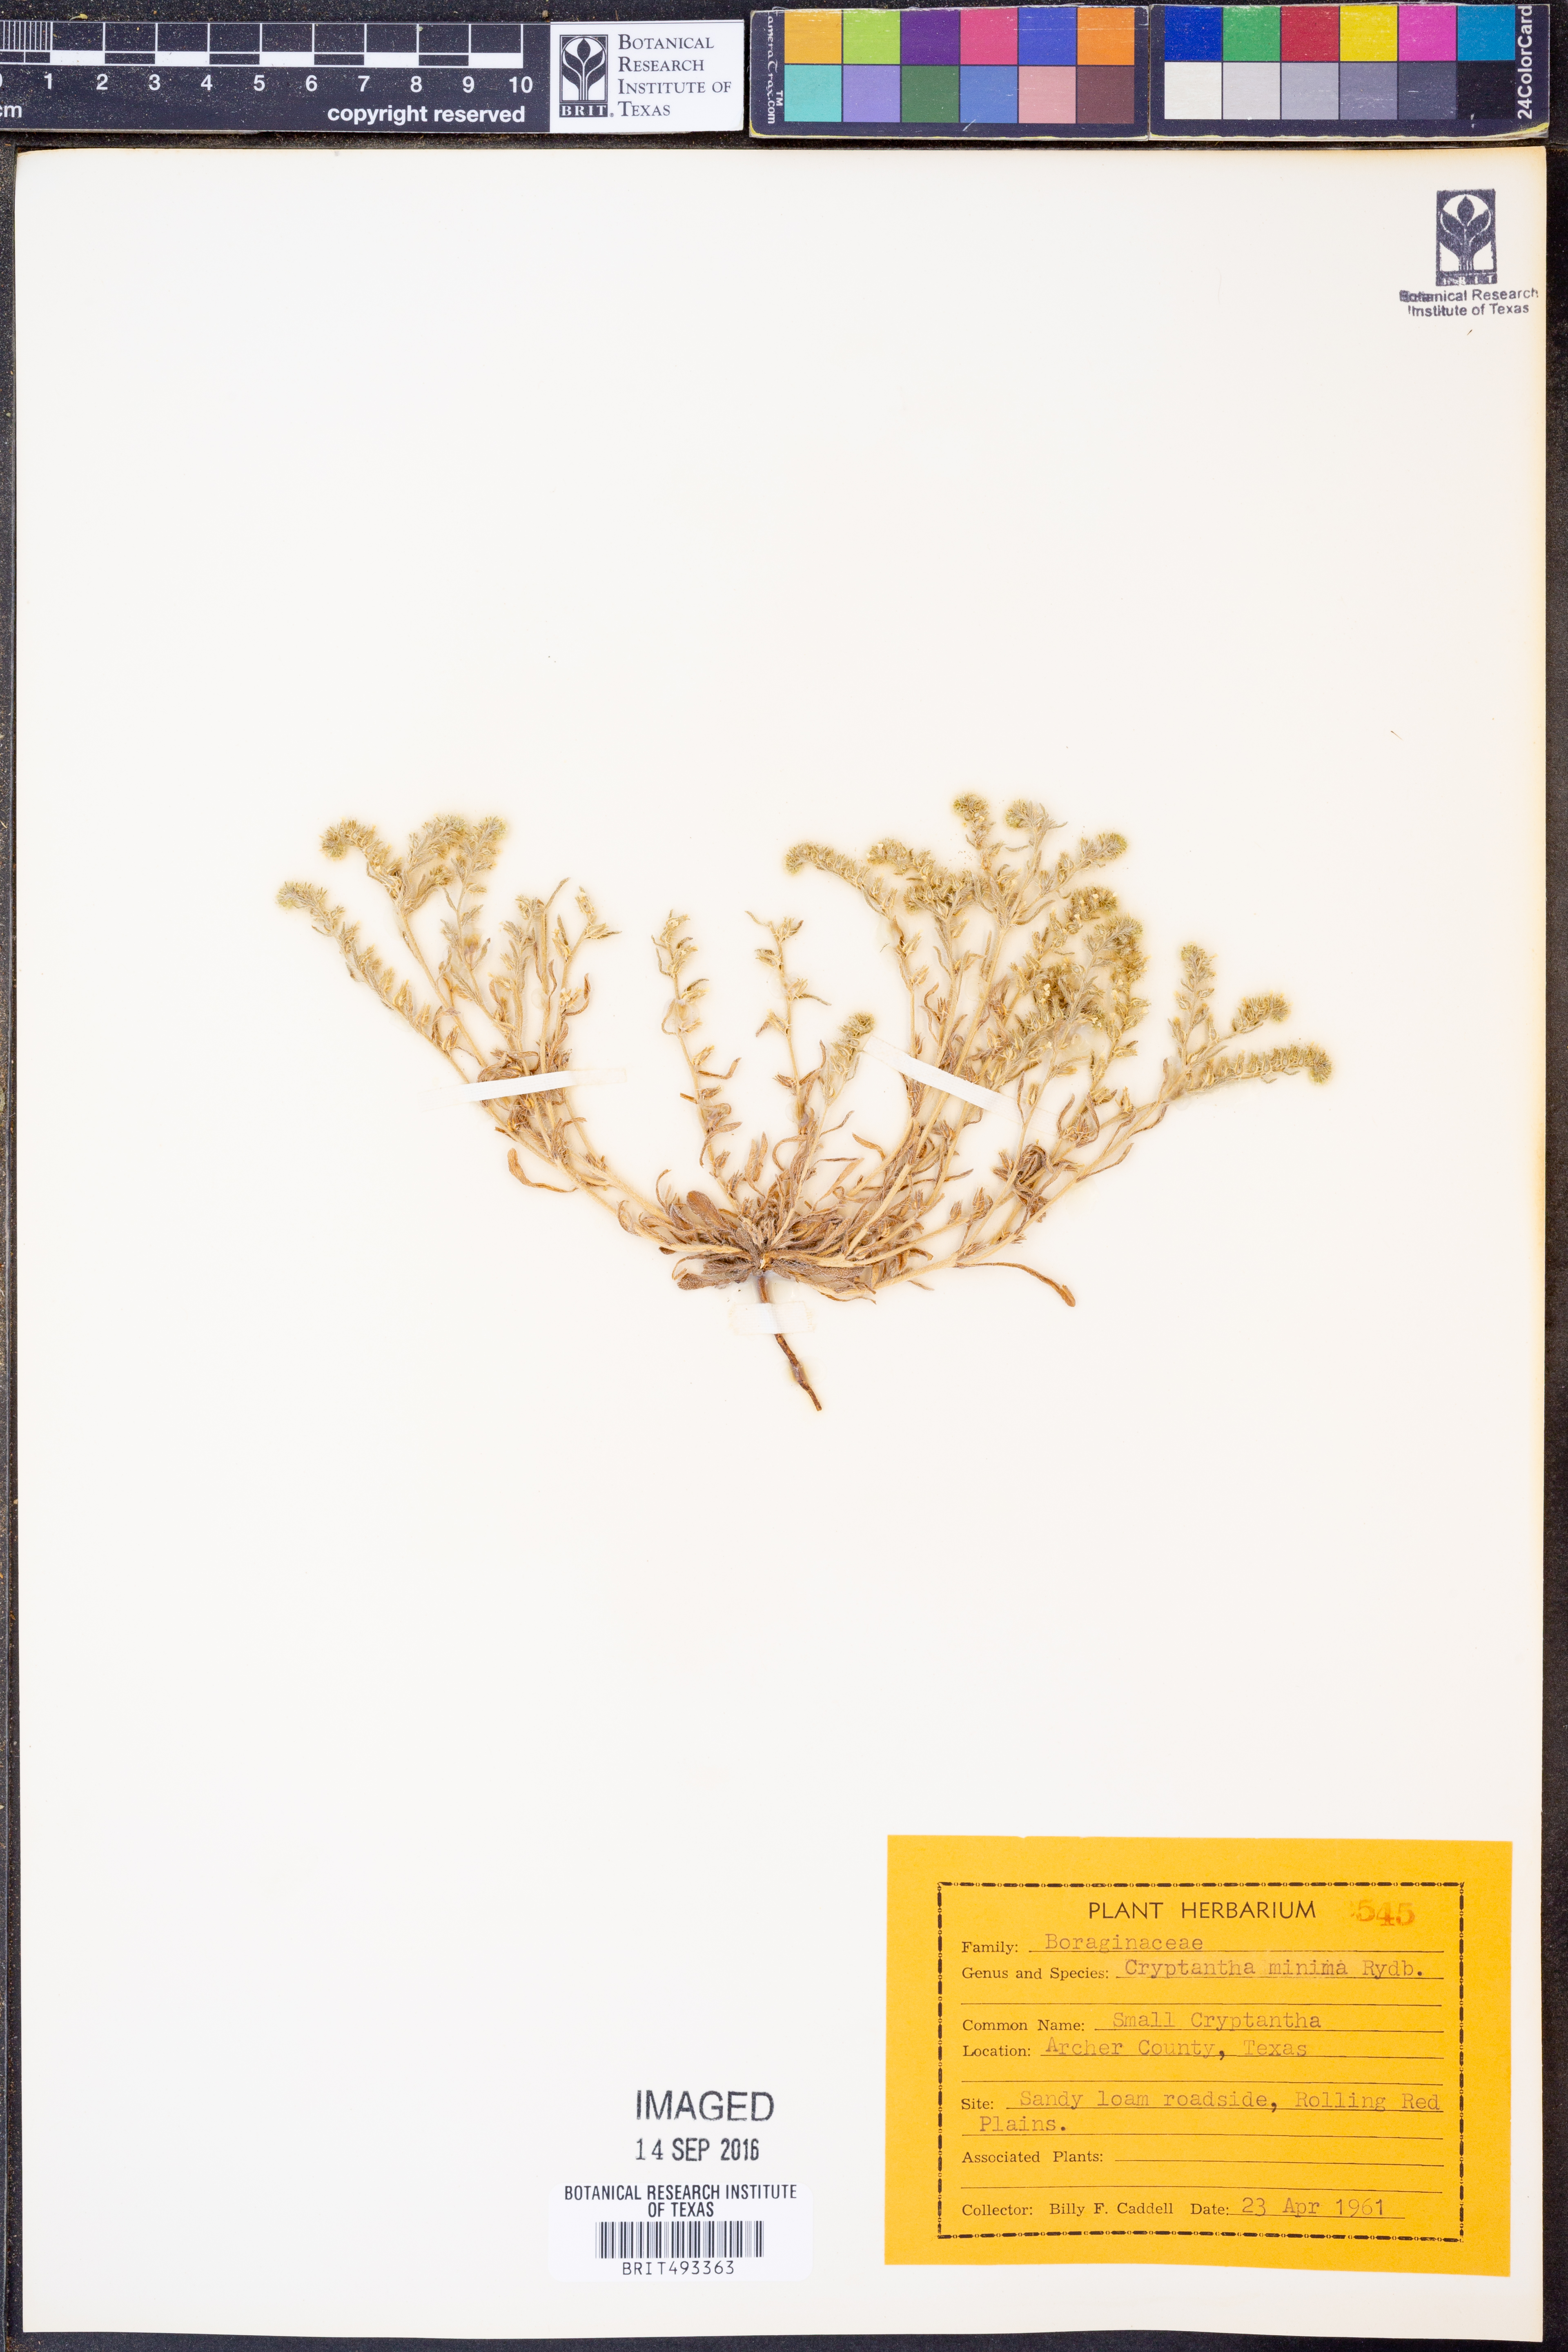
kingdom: Plantae
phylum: Tracheophyta
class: Magnoliopsida
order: Boraginales
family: Boraginaceae
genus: Cryptantha
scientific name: Cryptantha minima
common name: Little cat's-eye
